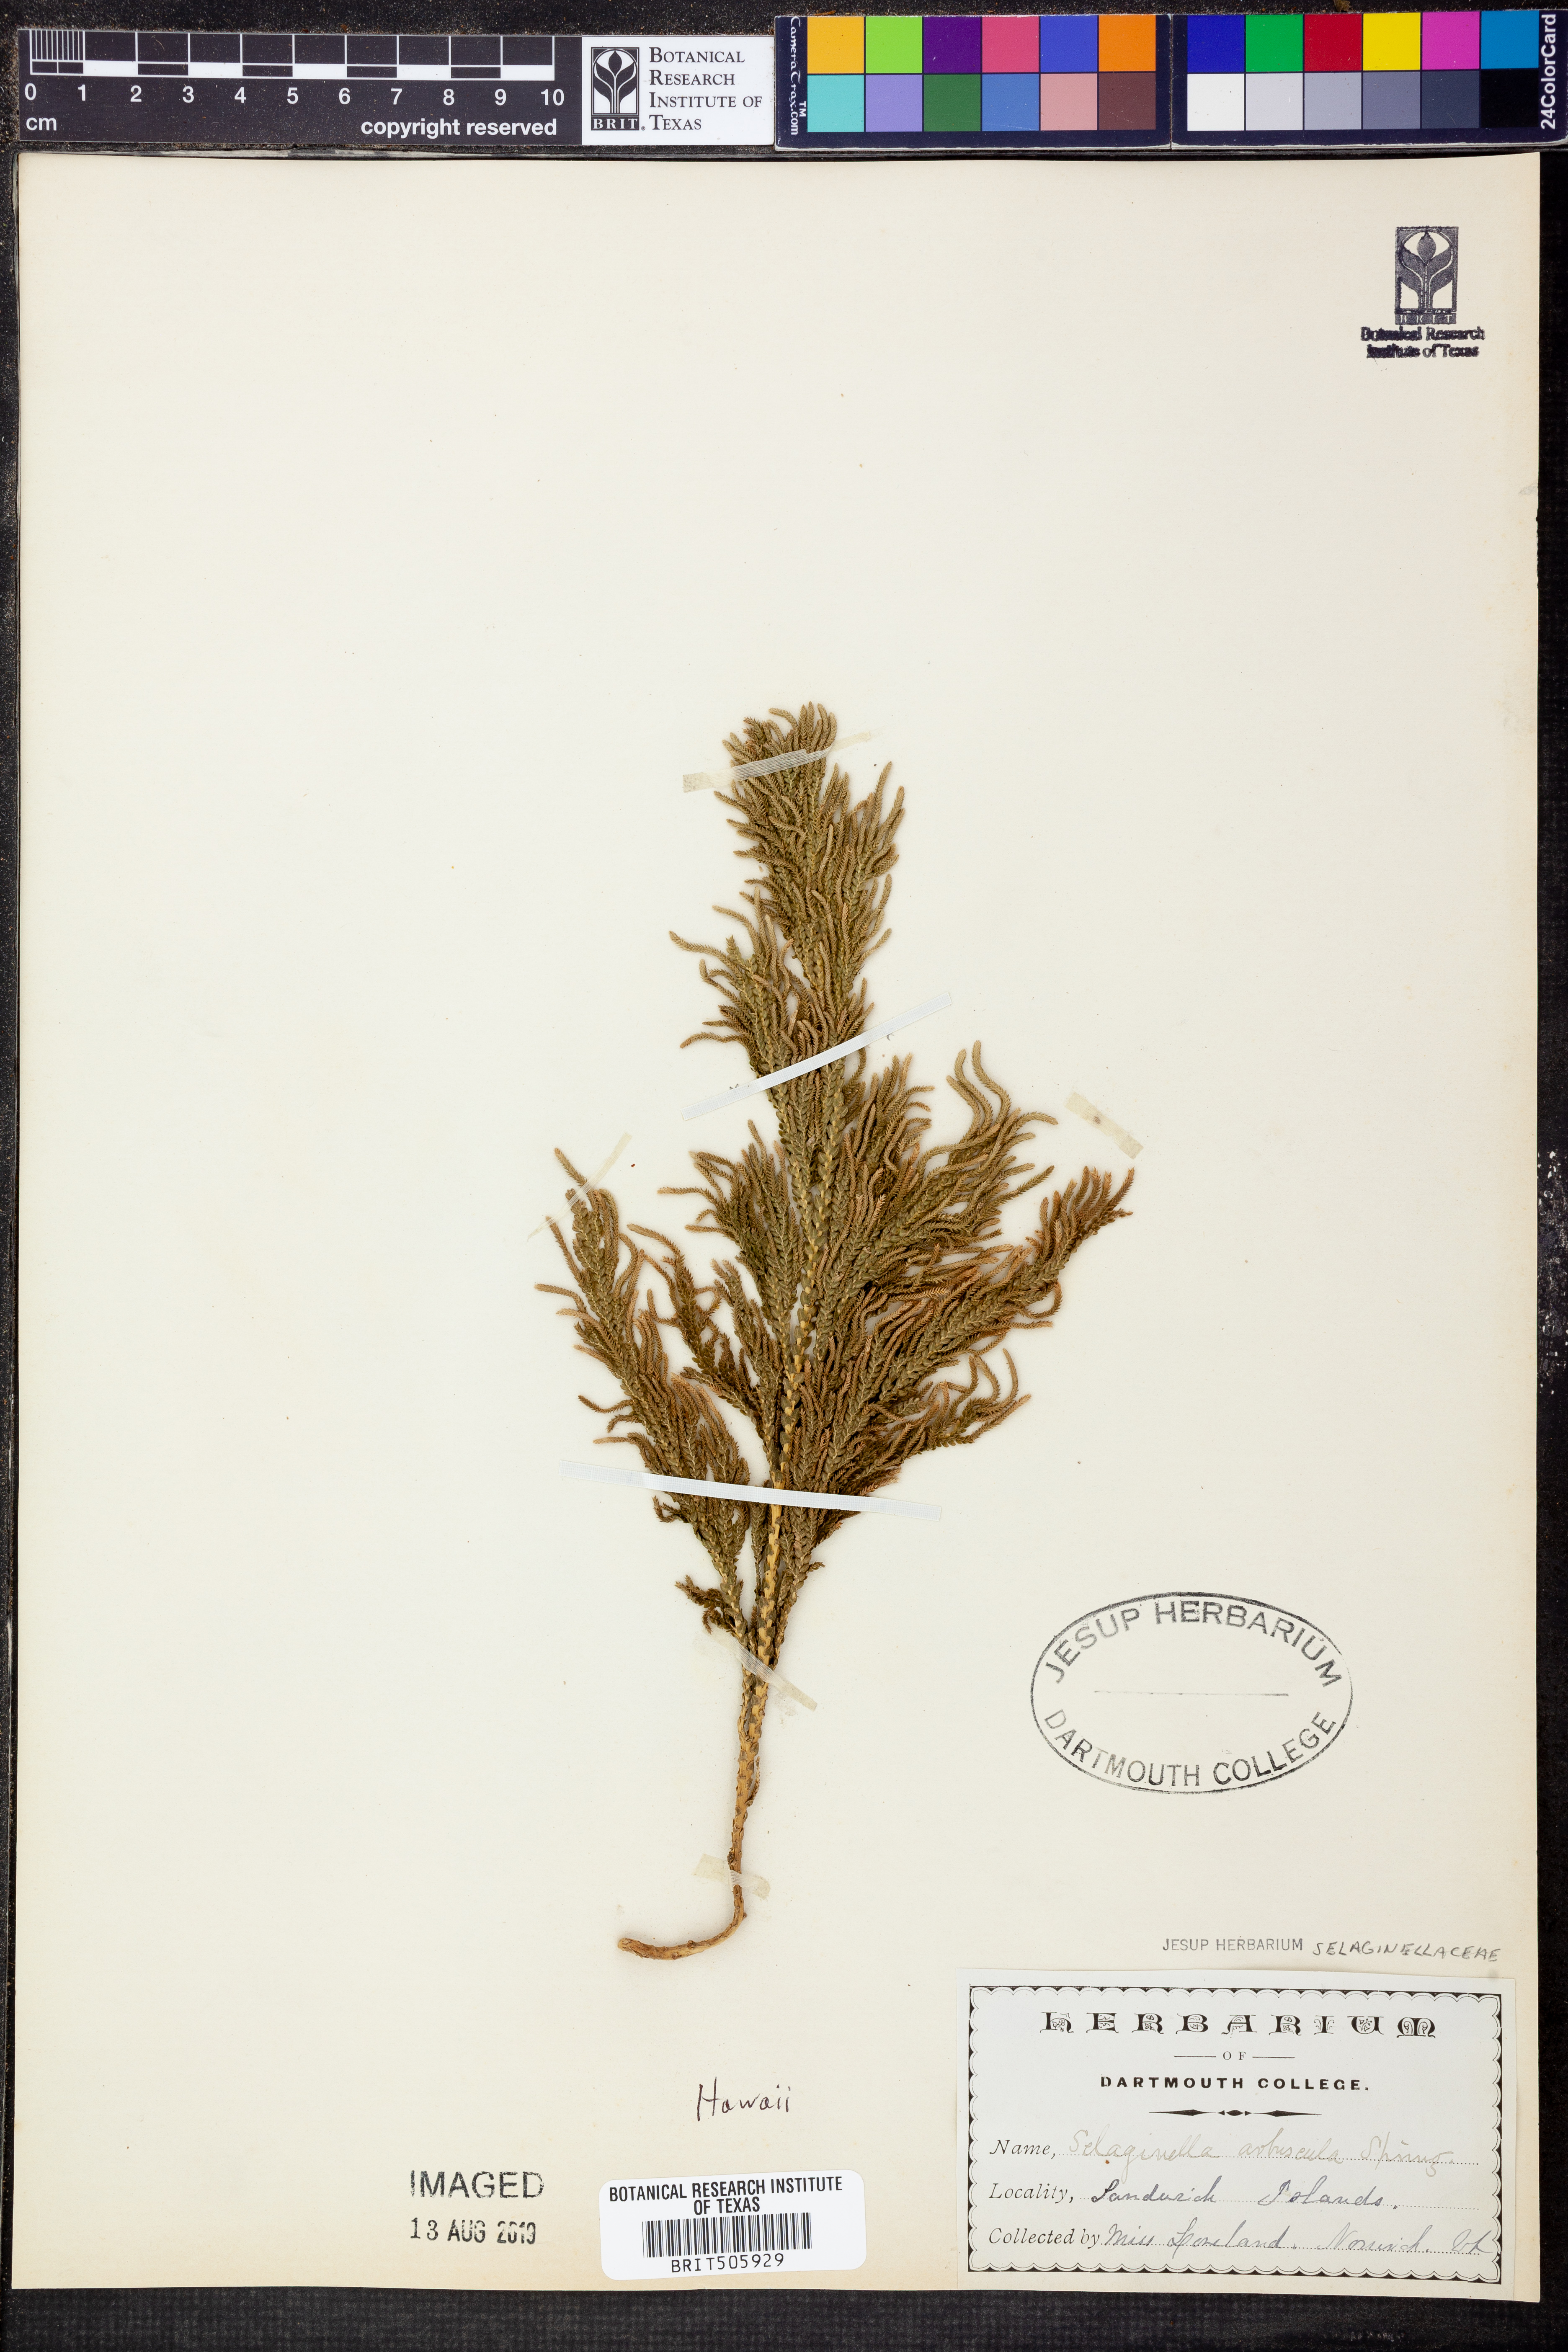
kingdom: Plantae
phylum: Tracheophyta
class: Lycopodiopsida
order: Selaginellales
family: Selaginellaceae
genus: Selaginella
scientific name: Selaginella arbuscula
